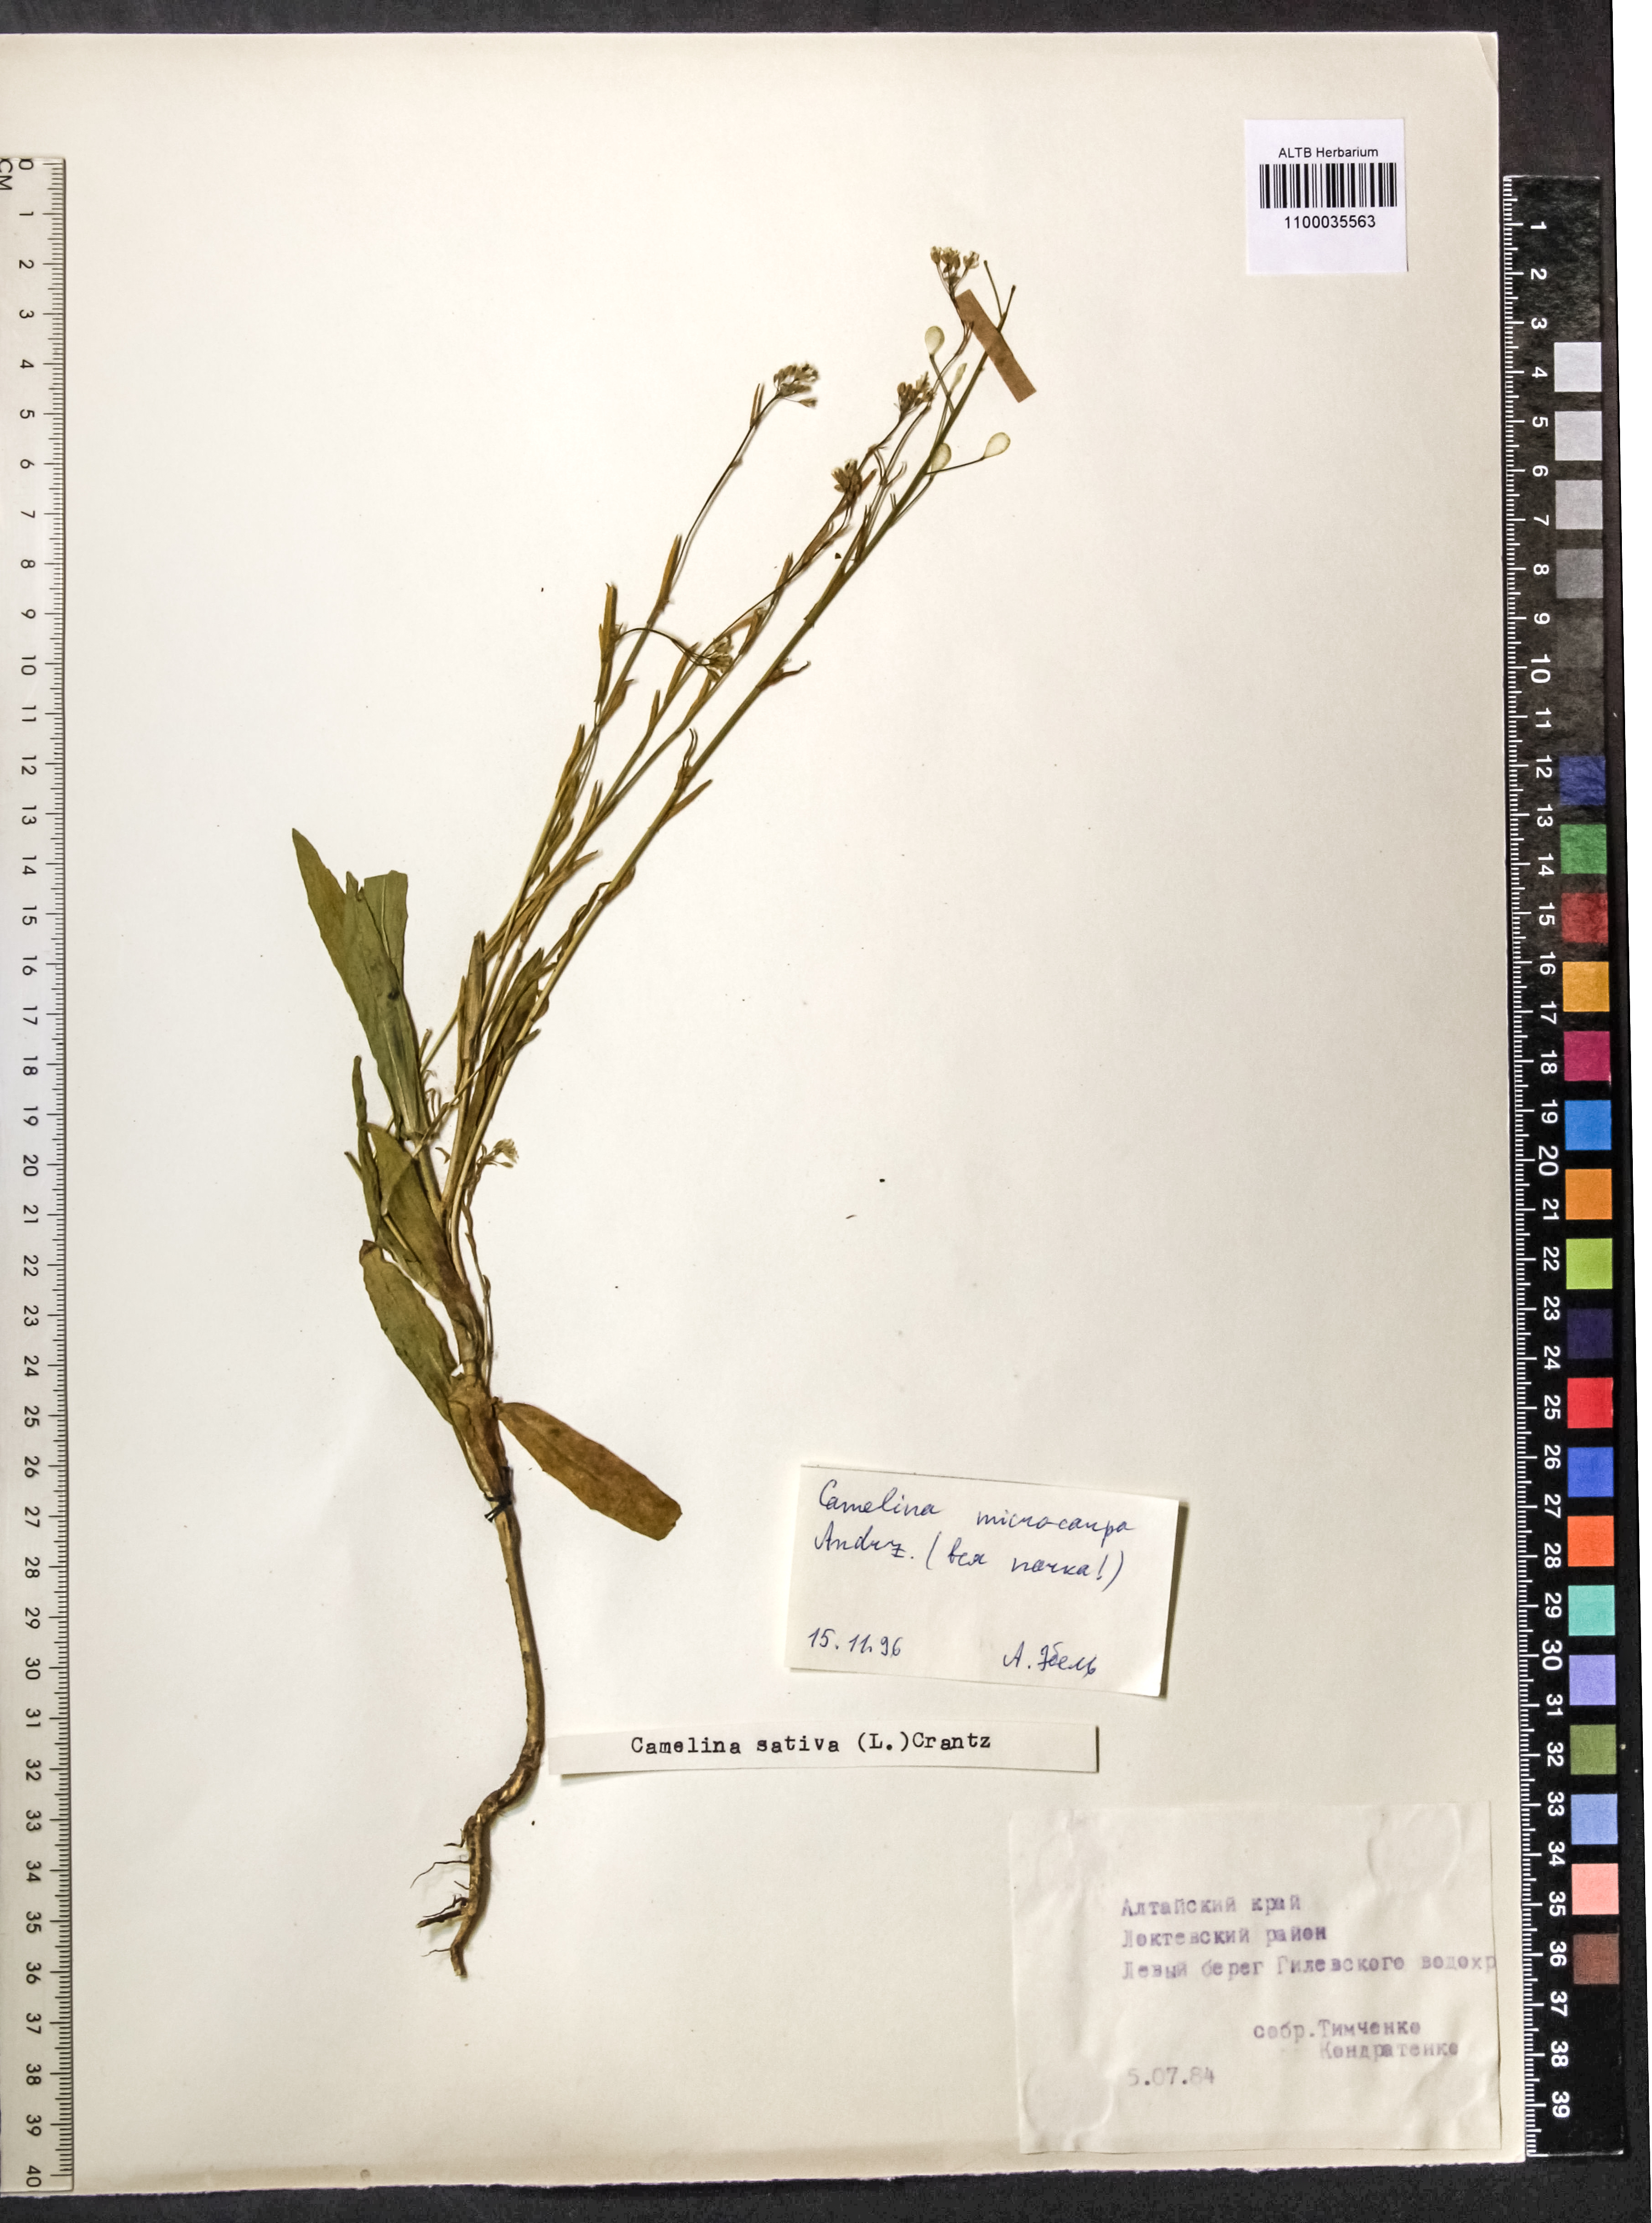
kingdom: Plantae
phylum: Tracheophyta
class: Magnoliopsida
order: Brassicales
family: Brassicaceae
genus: Camelina
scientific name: Camelina microcarpa
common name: Lesser gold-of-pleasure
